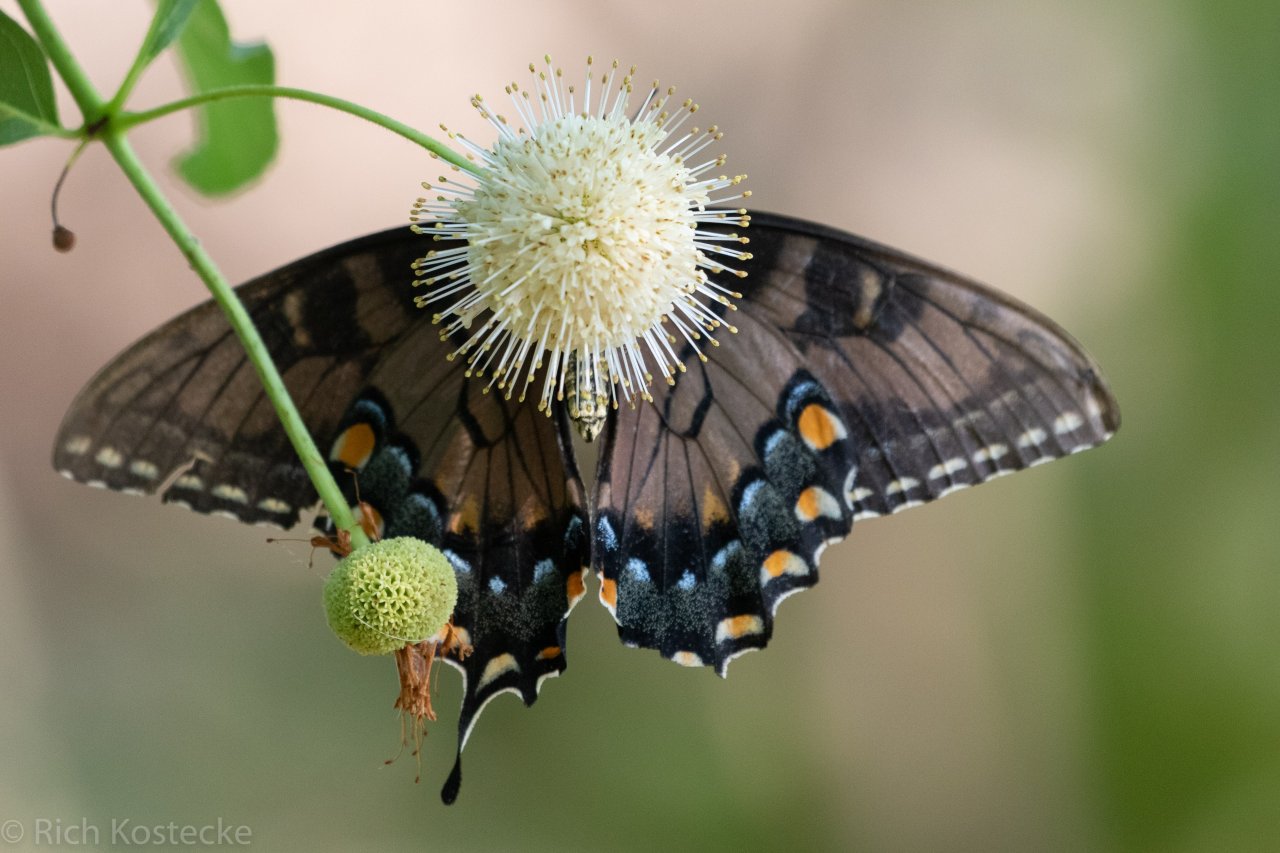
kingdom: Animalia
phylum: Arthropoda
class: Insecta
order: Lepidoptera
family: Papilionidae
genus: Pterourus
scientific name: Pterourus glaucus
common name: Eastern Tiger Swallowtail
